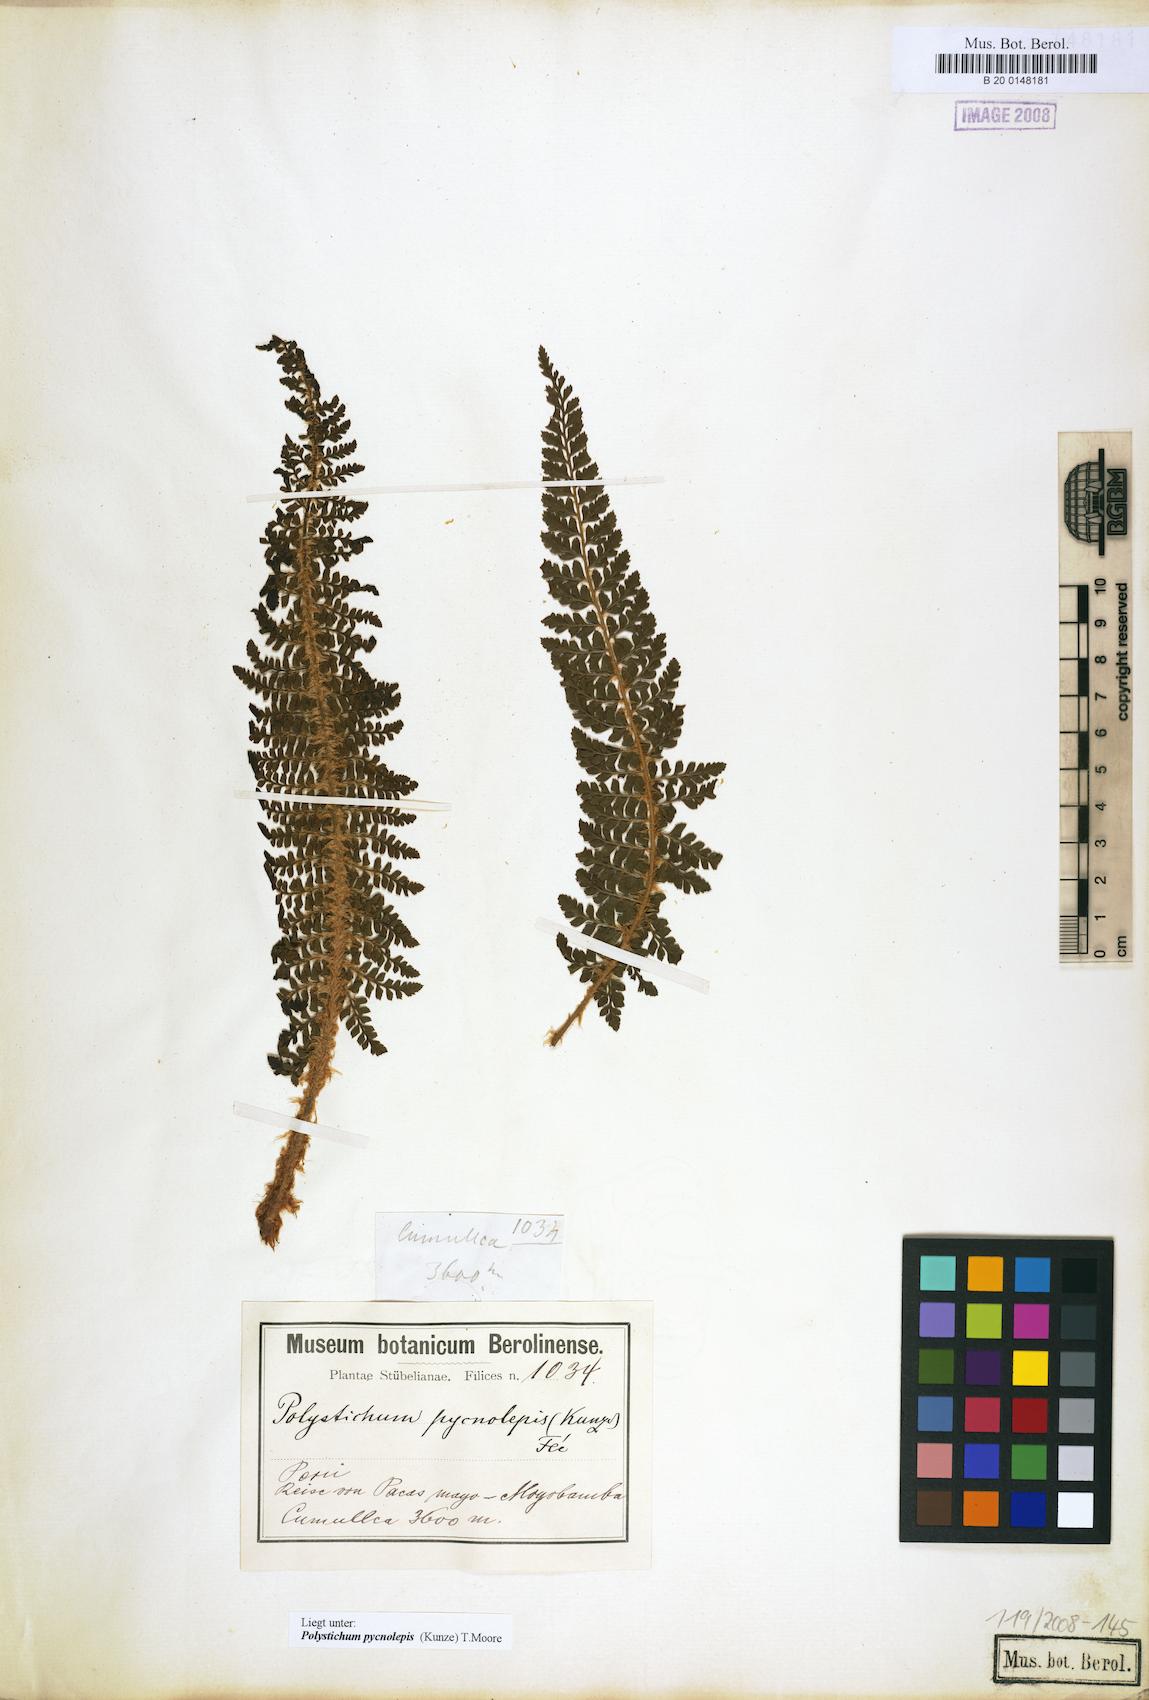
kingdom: Plantae
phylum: Tracheophyta
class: Polypodiopsida
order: Polypodiales
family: Dryopteridaceae
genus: Polystichum
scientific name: Polystichum pycnolepis
